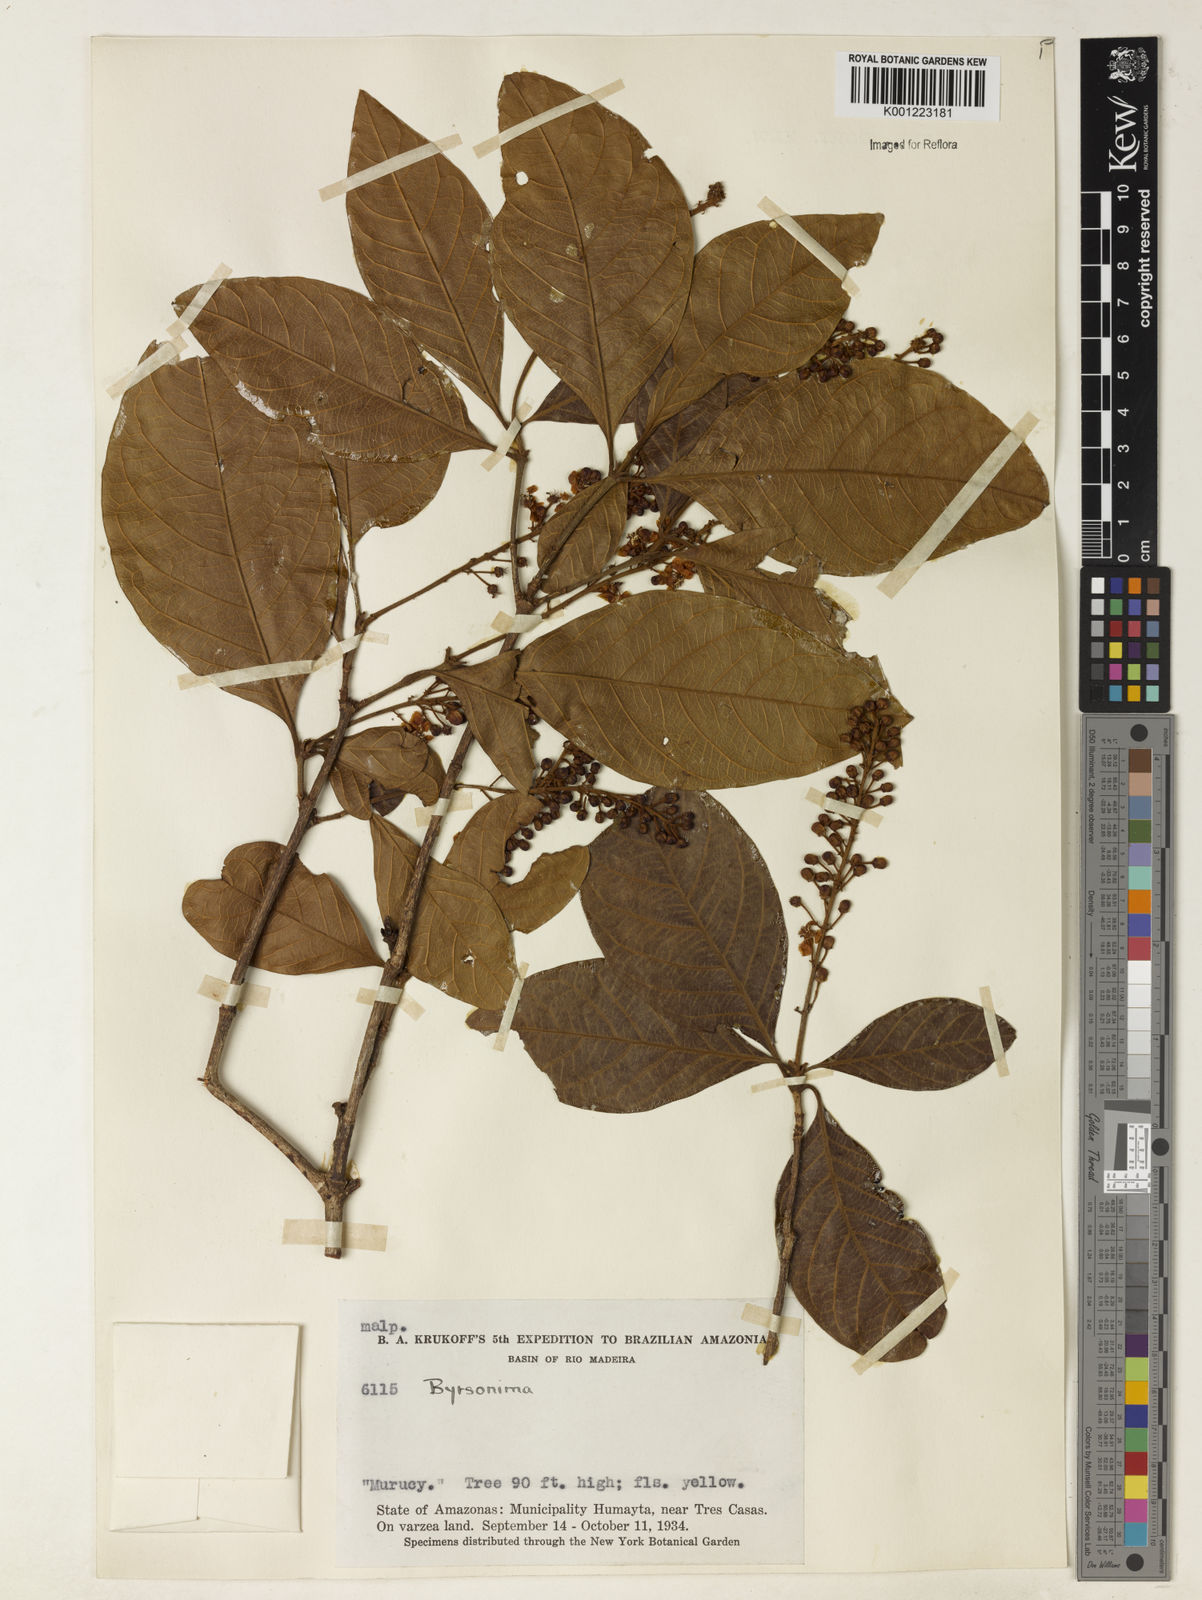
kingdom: Plantae
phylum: Tracheophyta
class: Magnoliopsida
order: Malpighiales
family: Malpighiaceae
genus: Byrsonima
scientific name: Byrsonima
